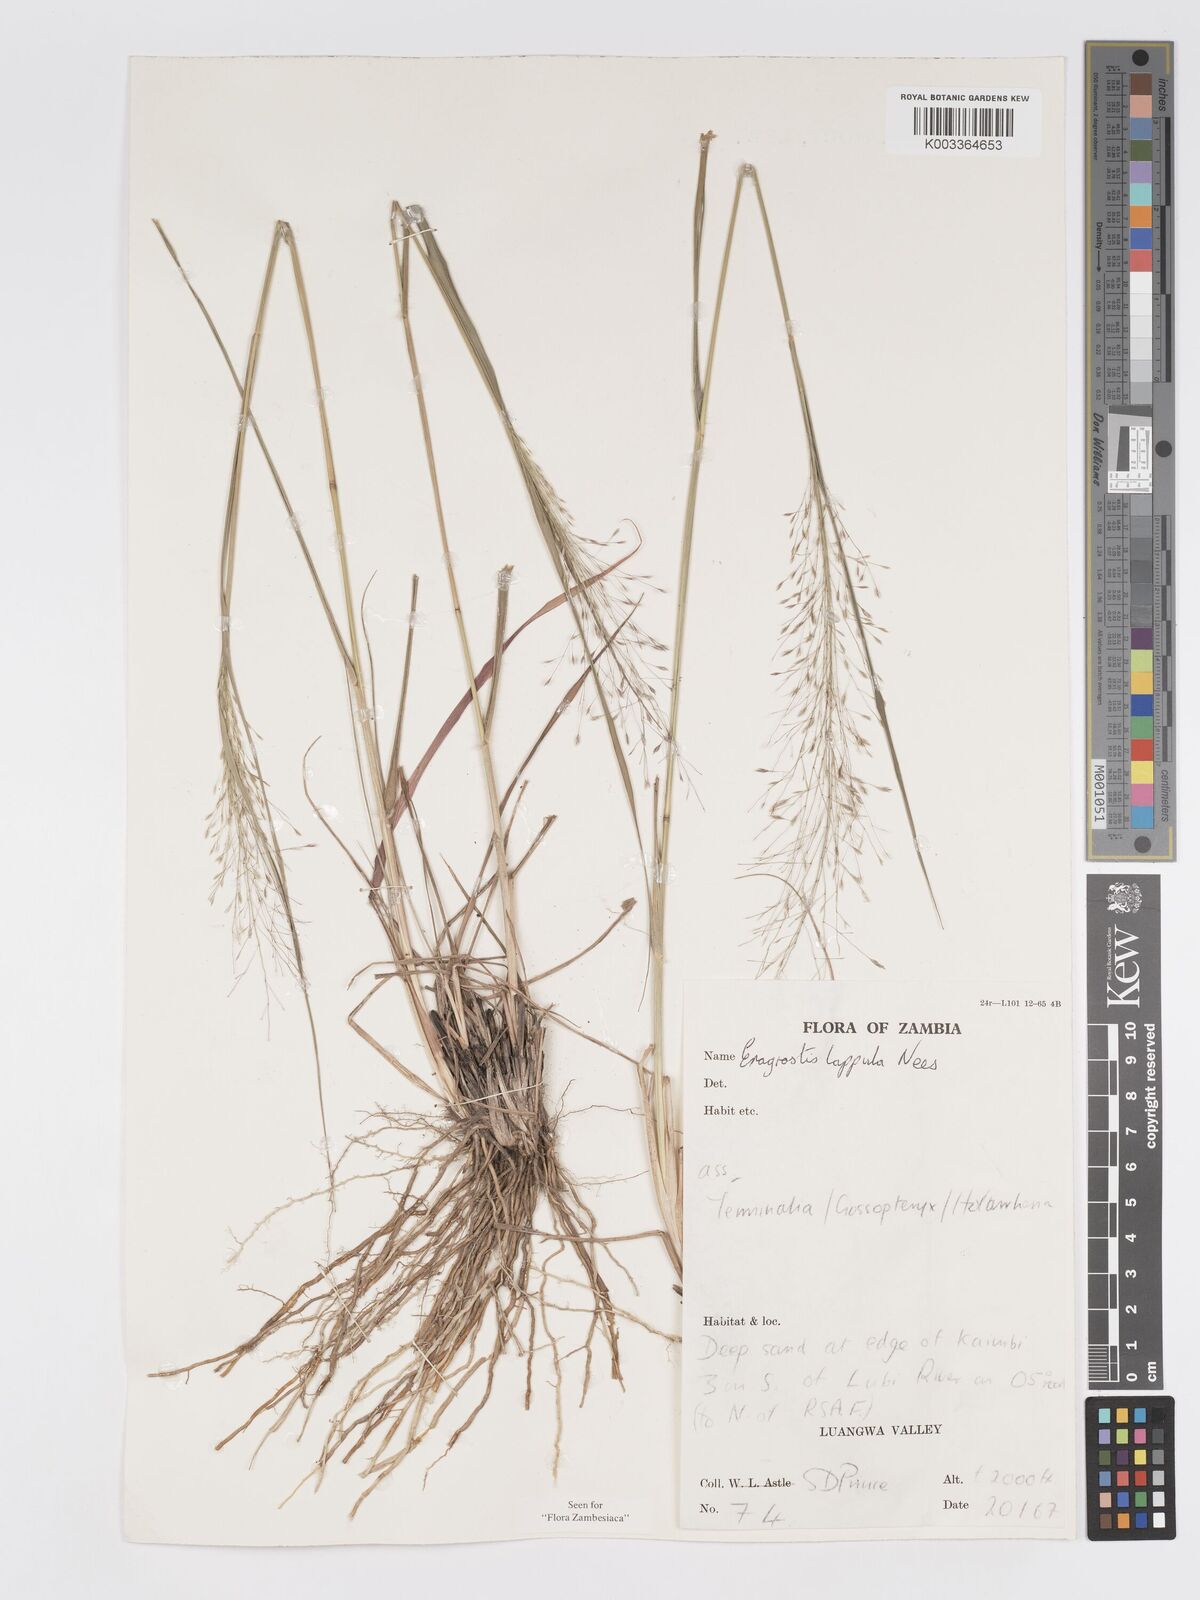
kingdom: Plantae
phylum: Tracheophyta
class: Liliopsida
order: Poales
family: Poaceae
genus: Eragrostis
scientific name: Eragrostis lappula
